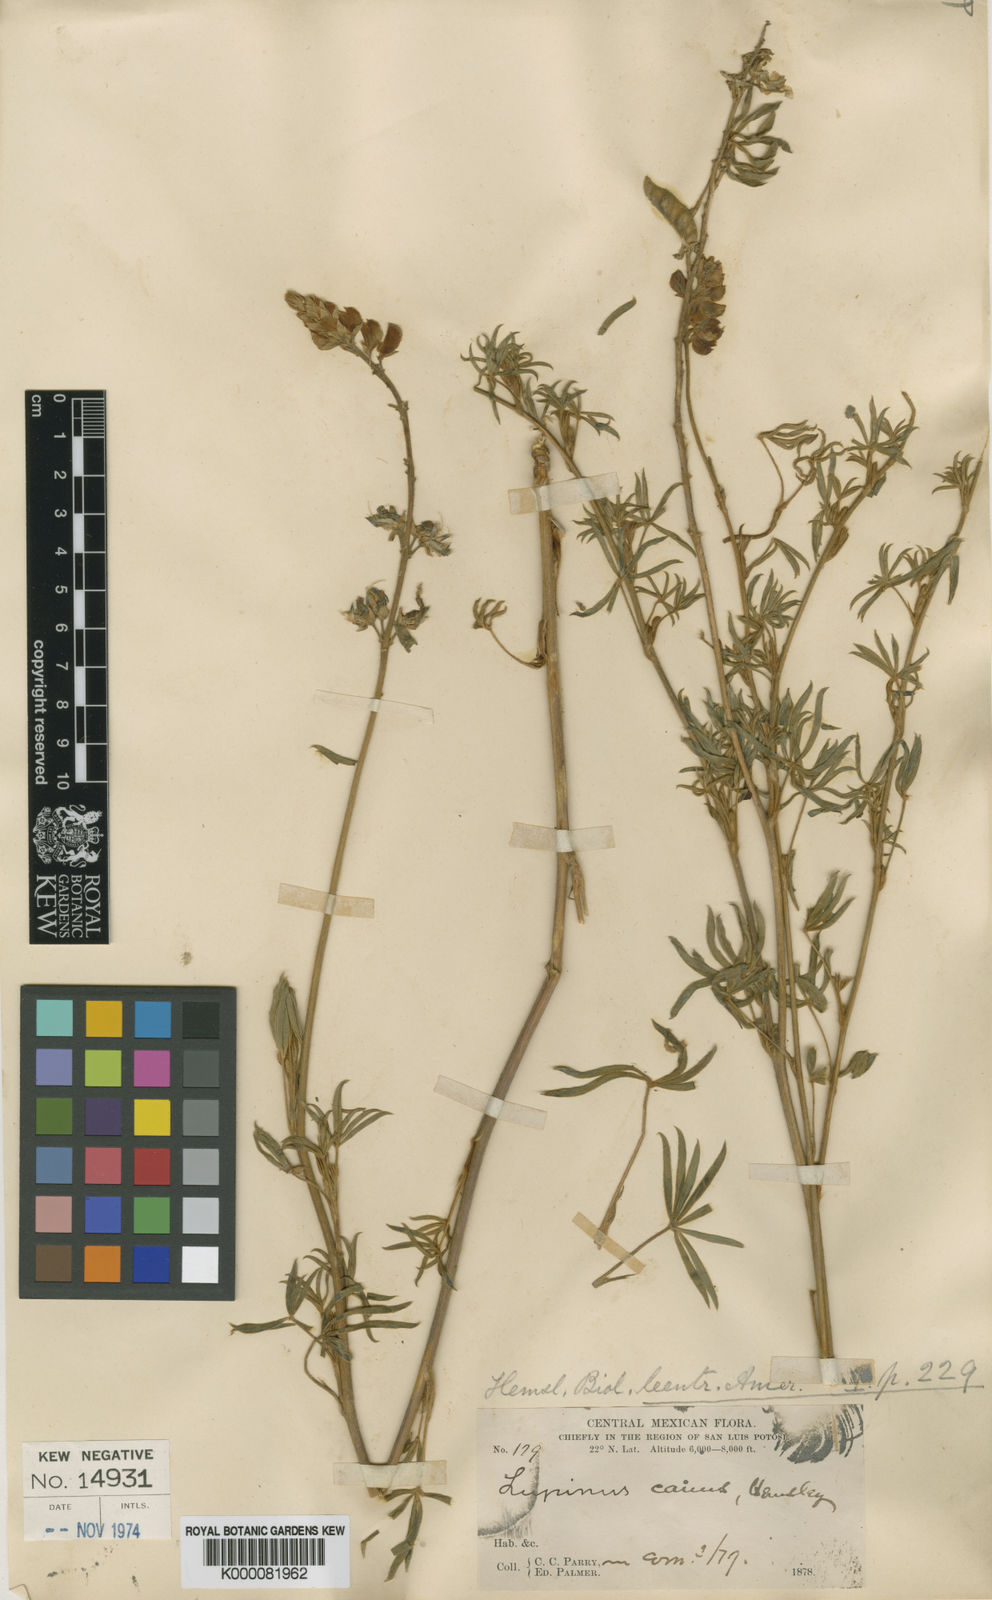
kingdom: Plantae
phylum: Tracheophyta
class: Magnoliopsida
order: Fabales
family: Fabaceae
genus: Lupinus
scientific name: Lupinus canus
